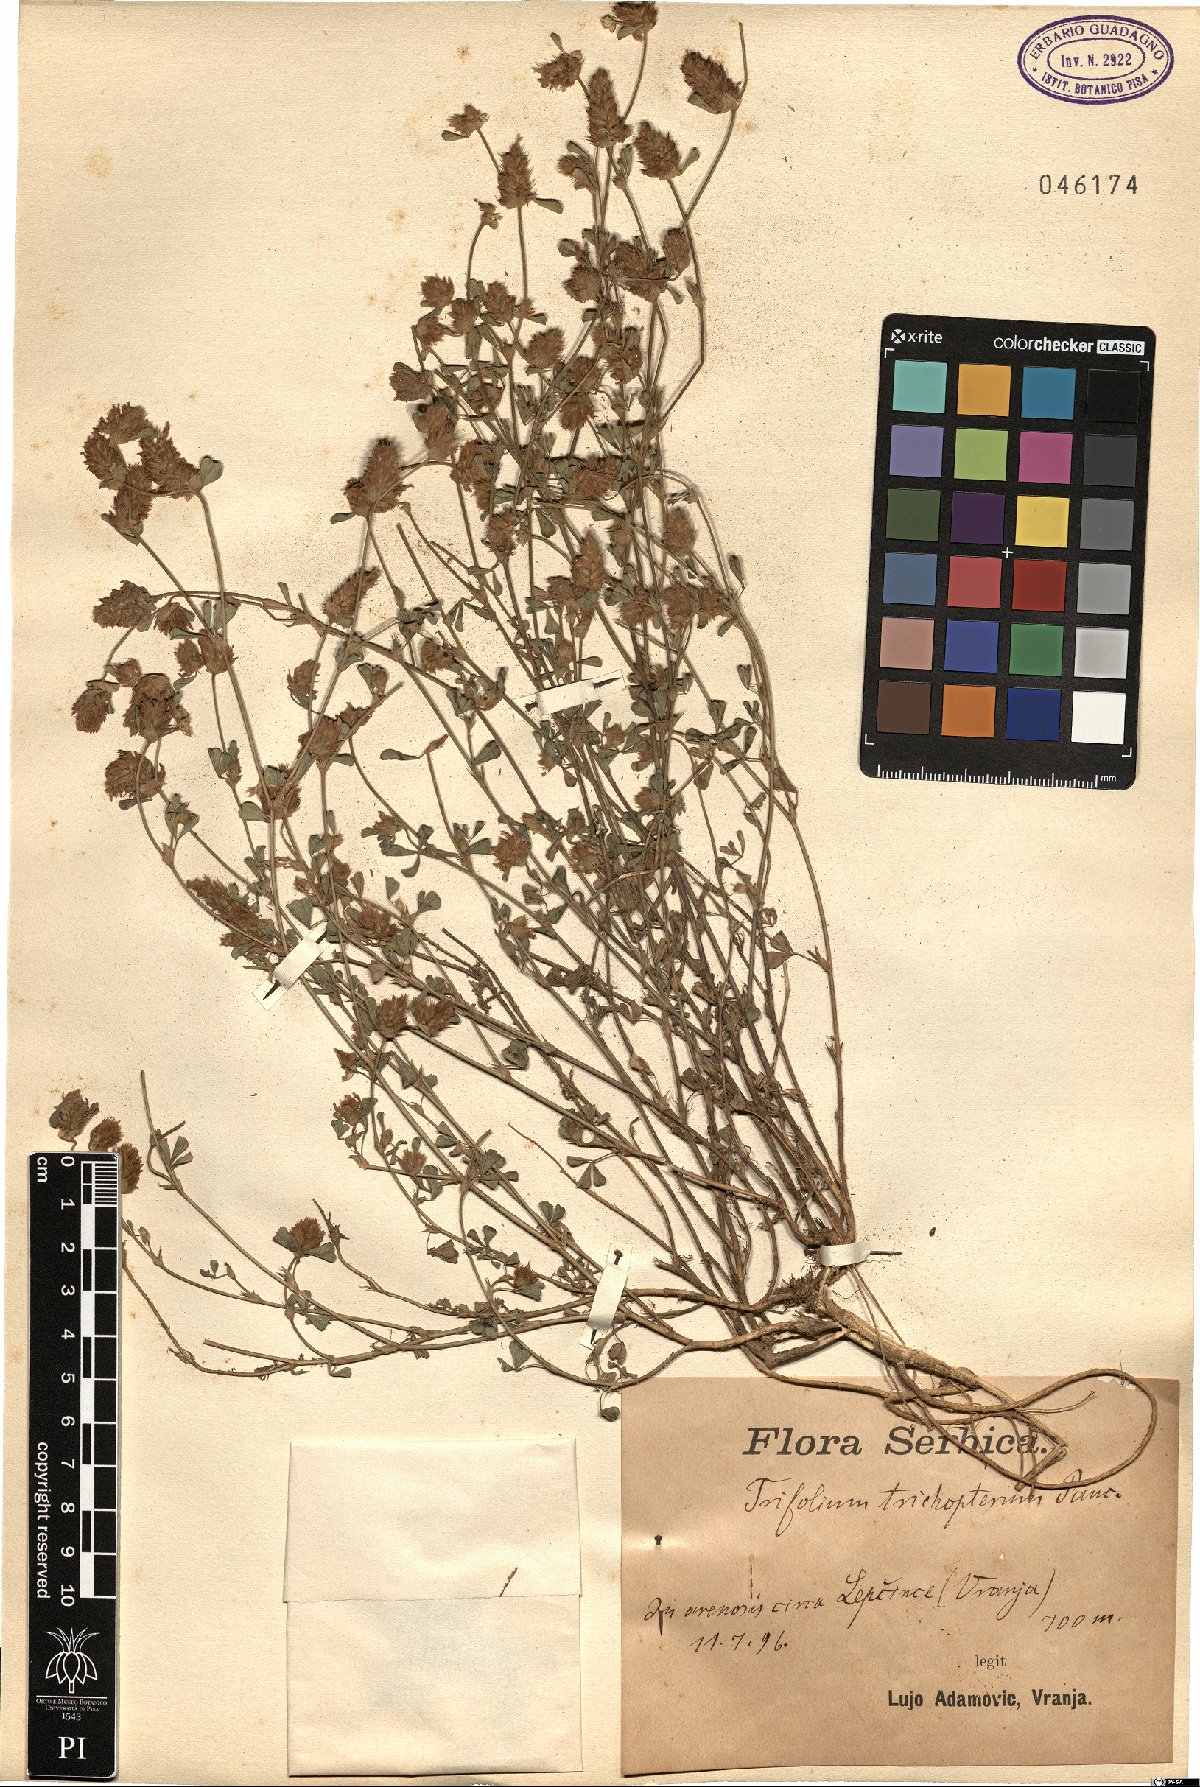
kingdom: Plantae
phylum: Tracheophyta
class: Magnoliopsida
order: Fabales
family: Fabaceae
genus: Trifolium
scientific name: Trifolium trichopterum
